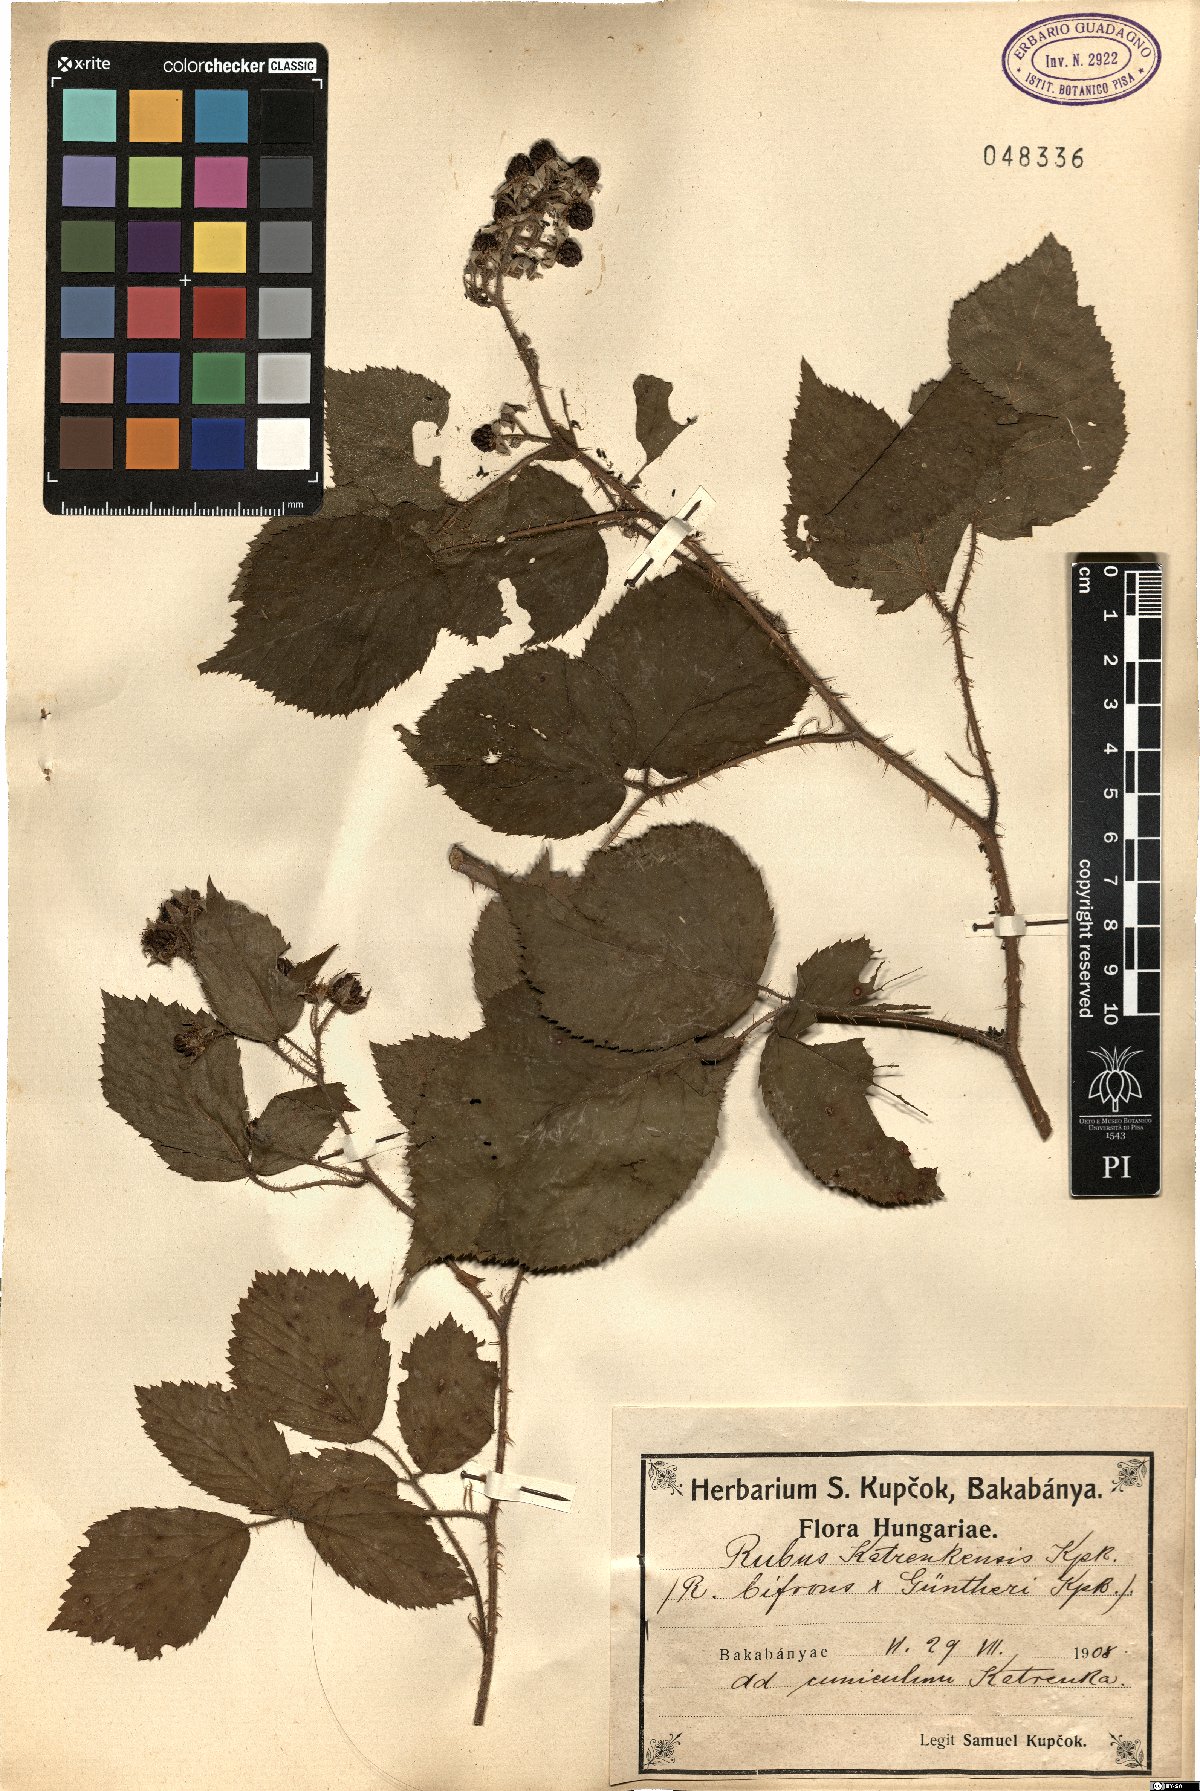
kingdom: Plantae
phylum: Tracheophyta
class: Magnoliopsida
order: Rosales
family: Rosaceae
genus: Rubus
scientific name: Rubus katrenkensis
